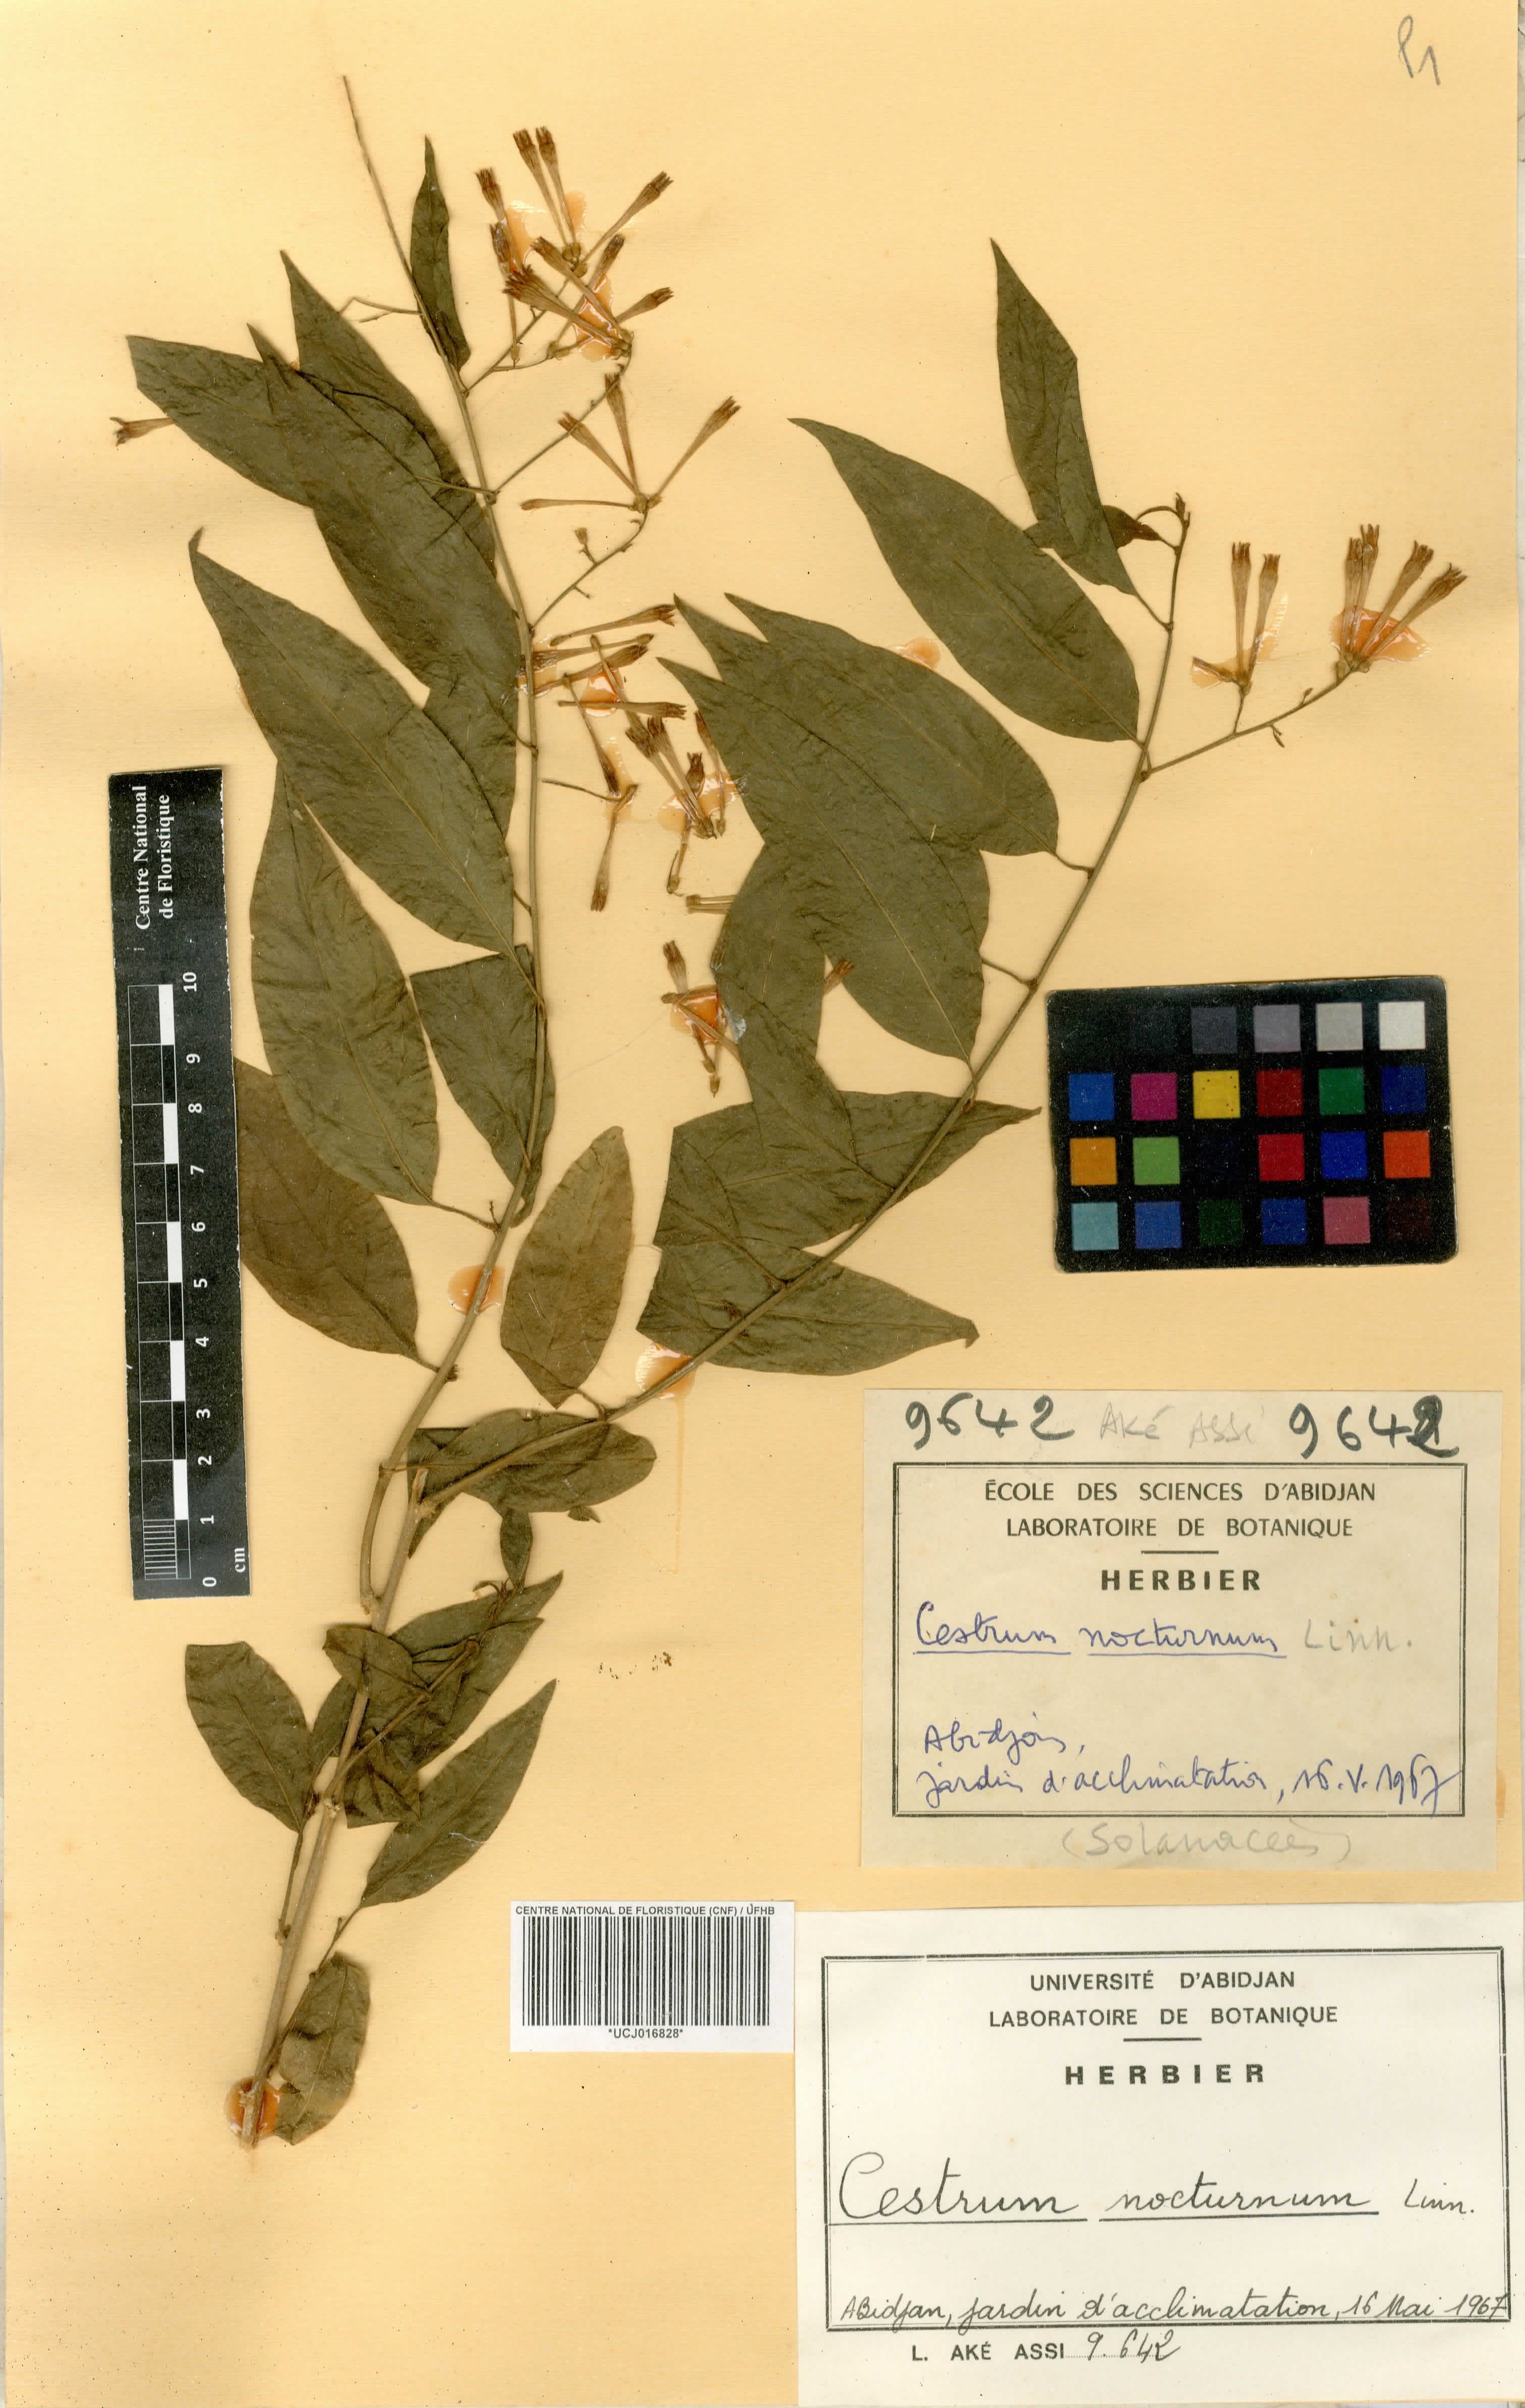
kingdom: Plantae
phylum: Tracheophyta
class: Magnoliopsida
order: Solanales
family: Solanaceae
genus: Cestrum
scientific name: Cestrum nocturnum
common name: Night jessamine
